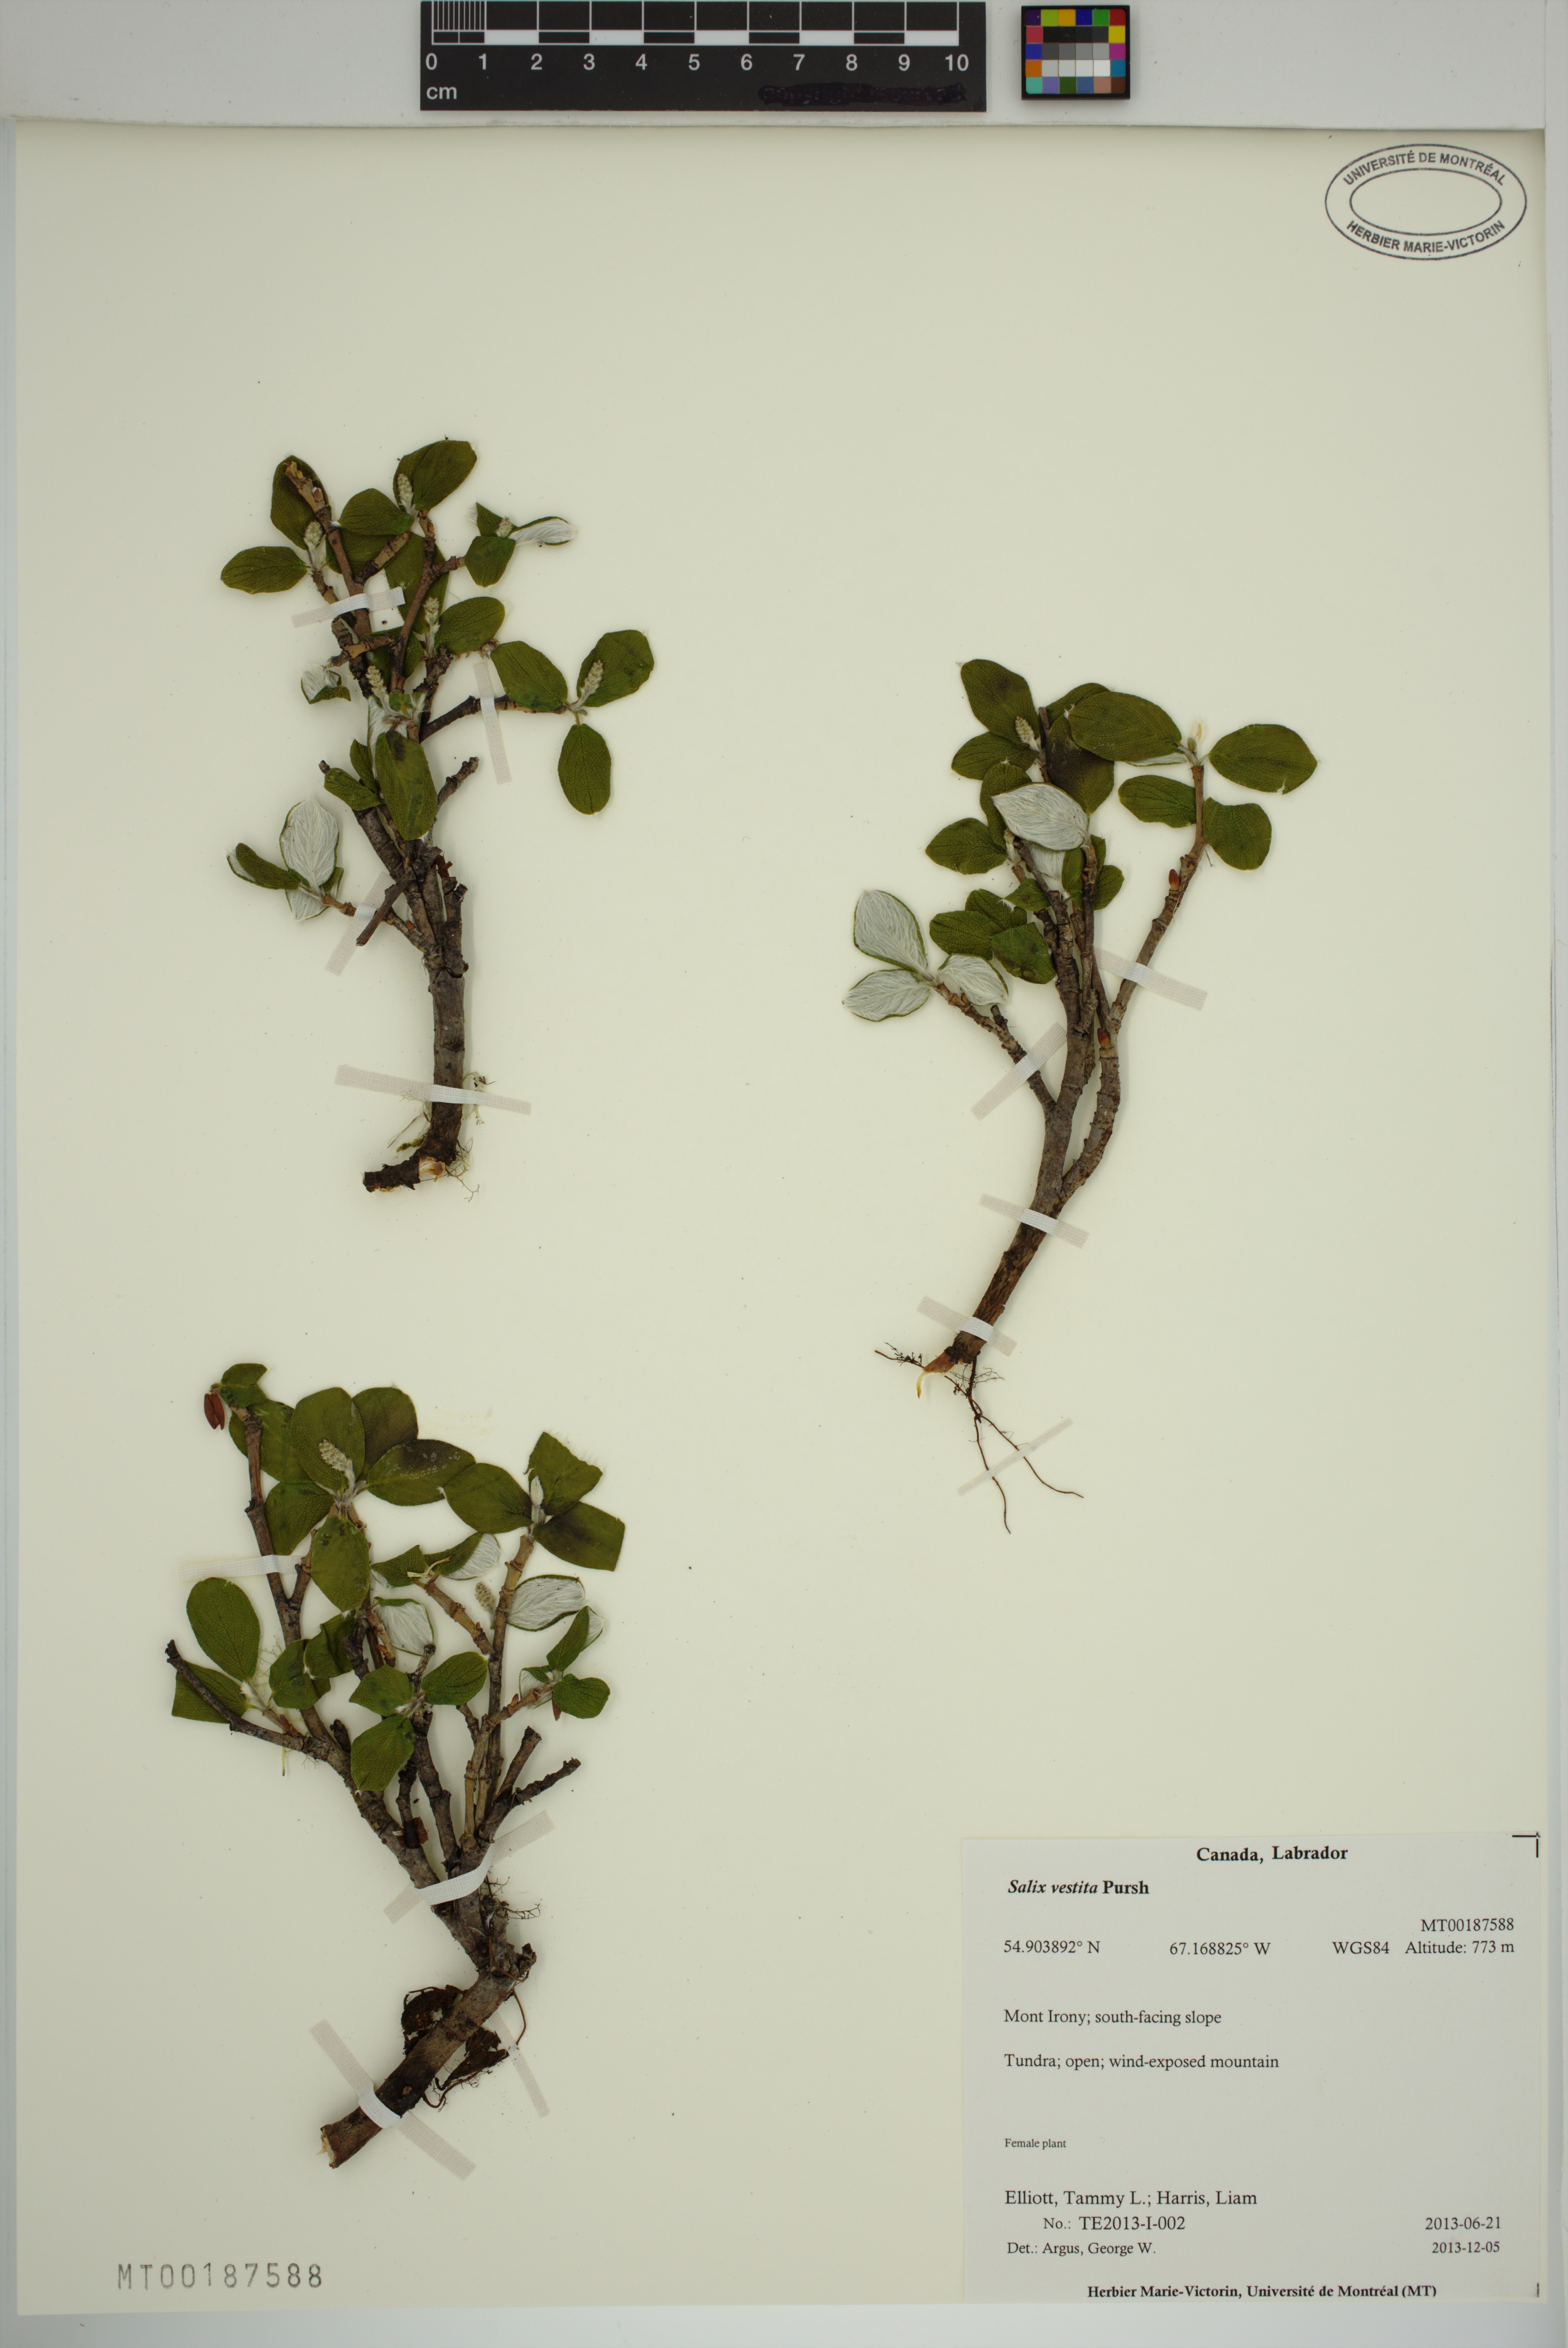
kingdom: Plantae
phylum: Tracheophyta
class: Magnoliopsida
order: Malpighiales
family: Salicaceae
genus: Salix
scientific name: Salix vestita
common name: Hairy willow
